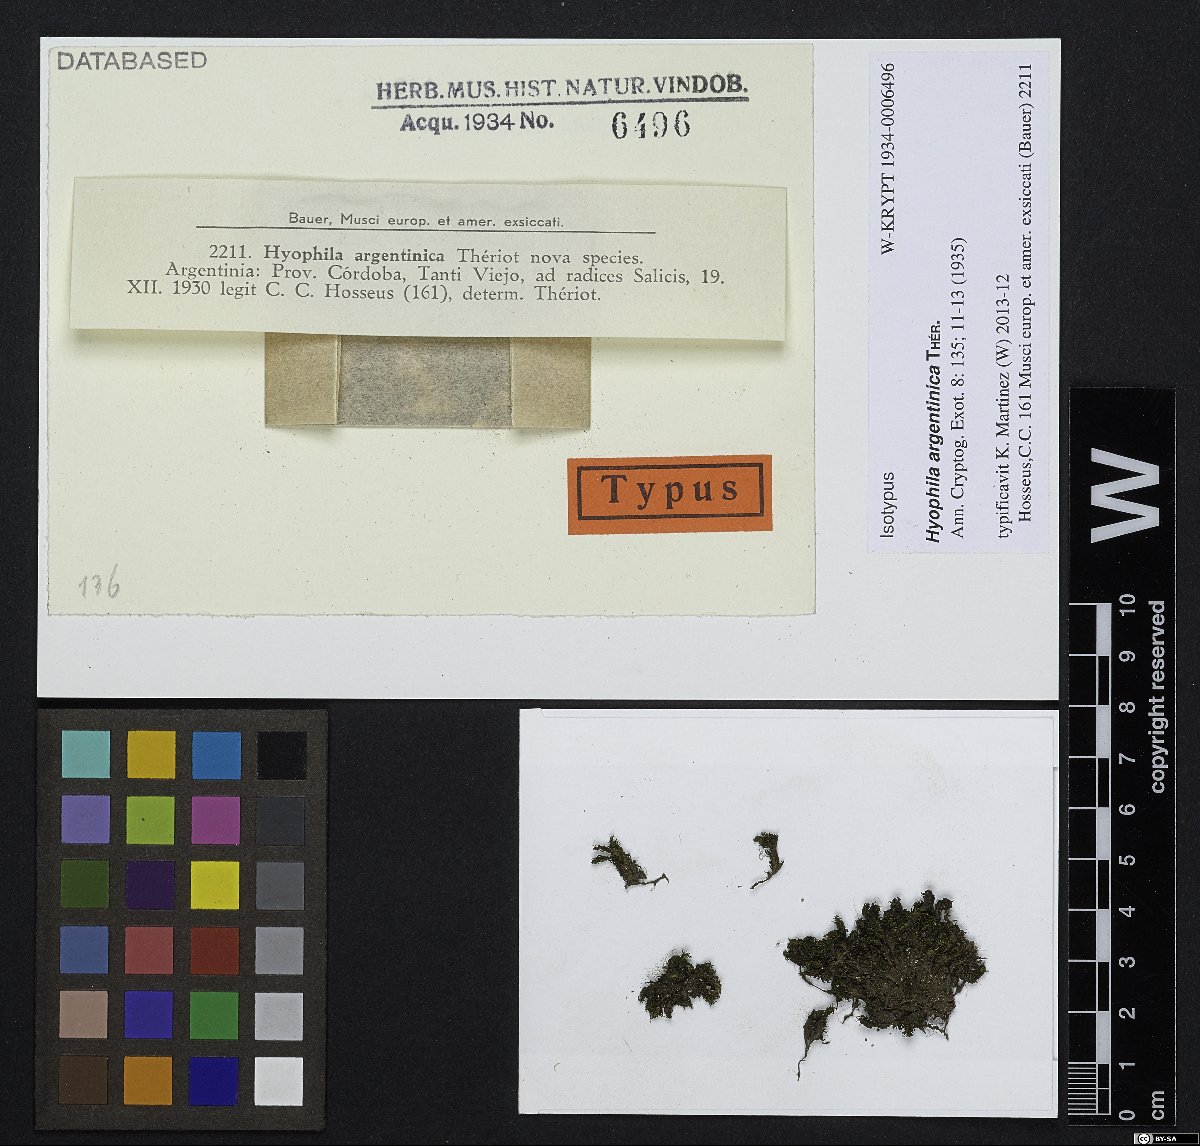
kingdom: Plantae
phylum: Bryophyta
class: Bryopsida
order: Pottiales
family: Pottiaceae
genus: Hyophila
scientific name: Hyophila argentinica
